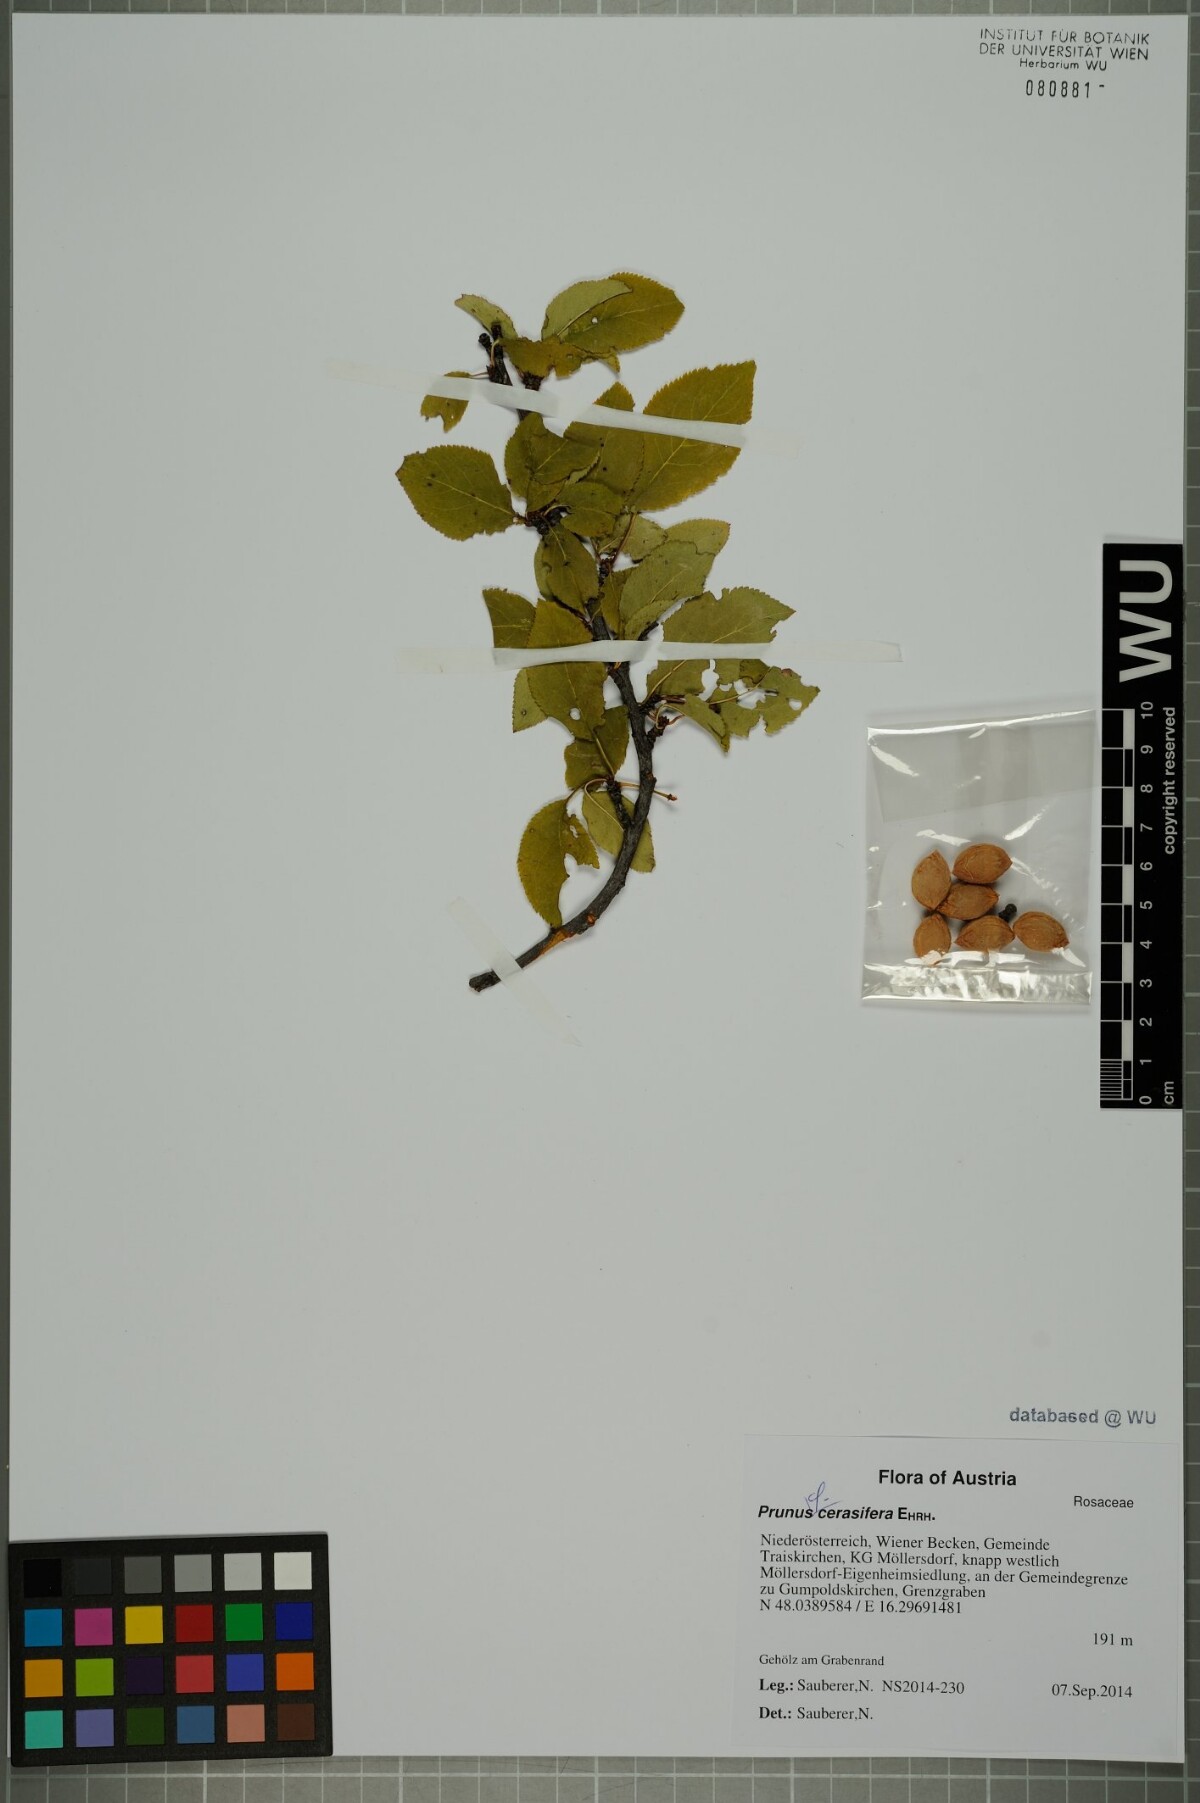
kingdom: Plantae
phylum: Tracheophyta
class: Magnoliopsida
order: Rosales
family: Rosaceae
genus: Prunus
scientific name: Prunus cerasifera
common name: Cherry plum
